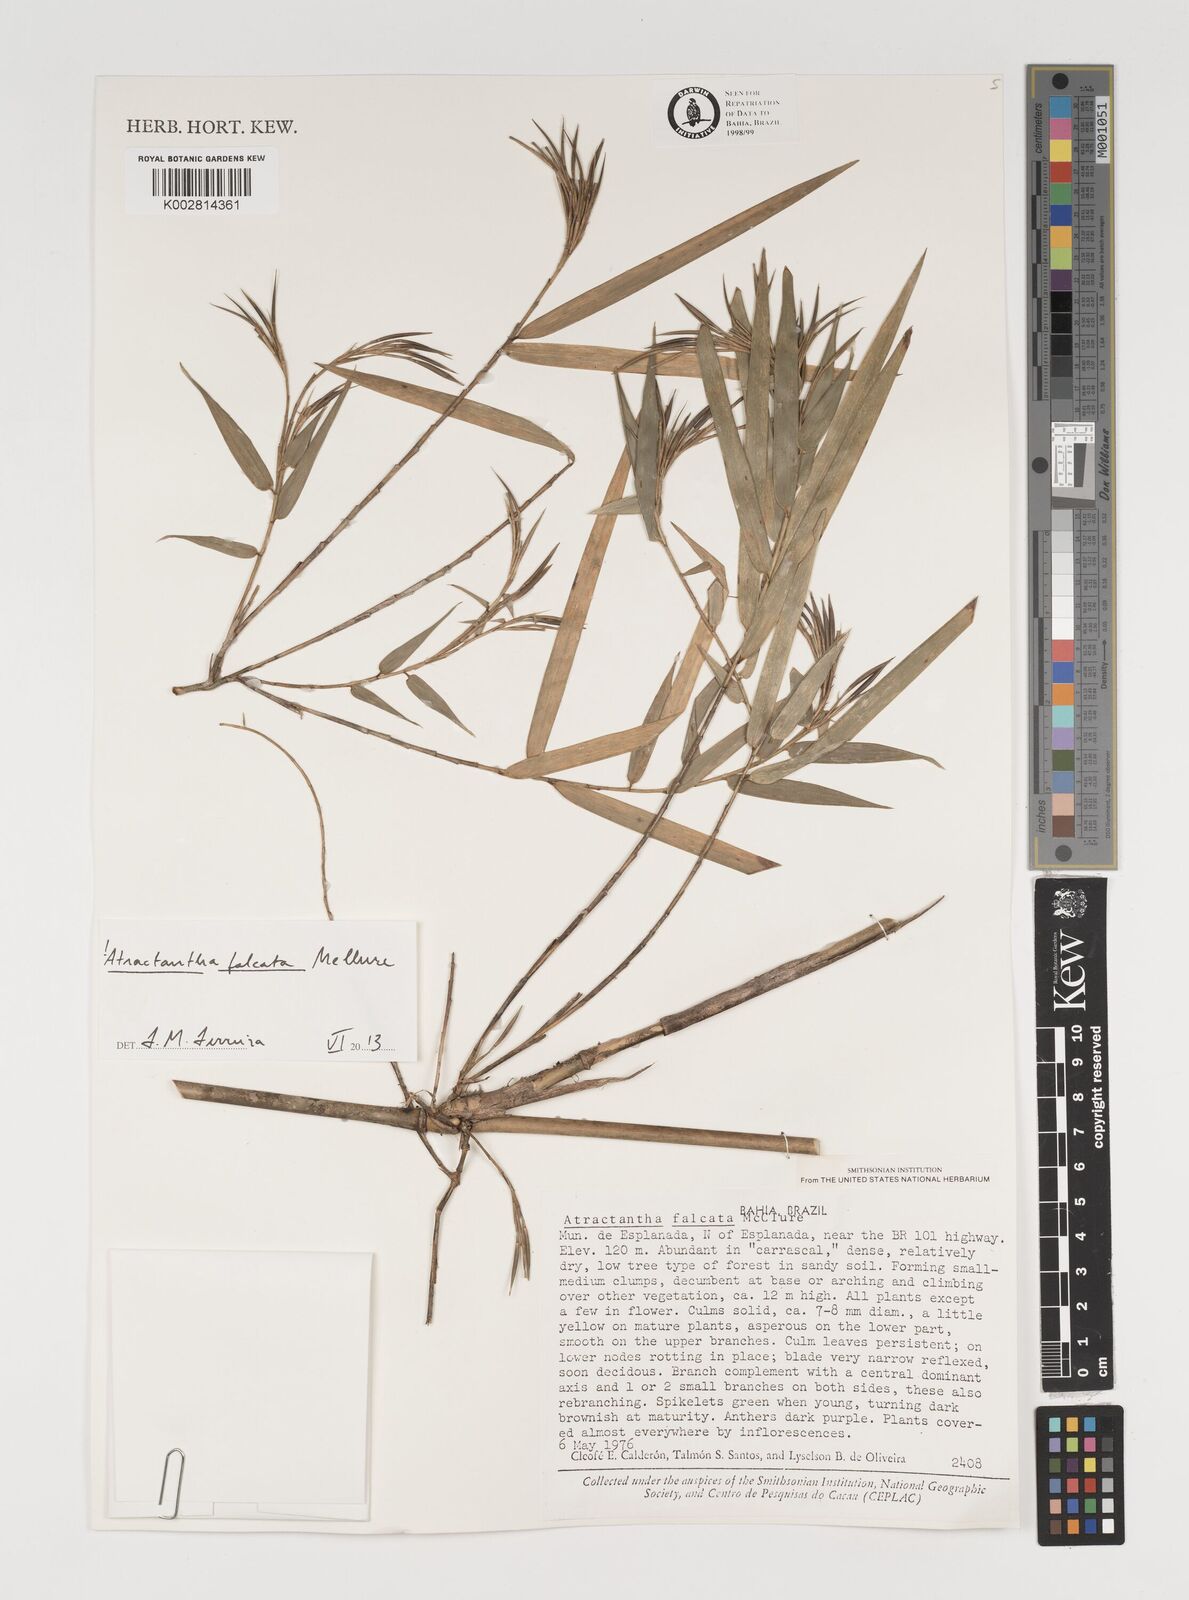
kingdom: Plantae
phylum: Tracheophyta
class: Liliopsida
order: Poales
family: Poaceae
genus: Atractantha
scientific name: Atractantha falcata
